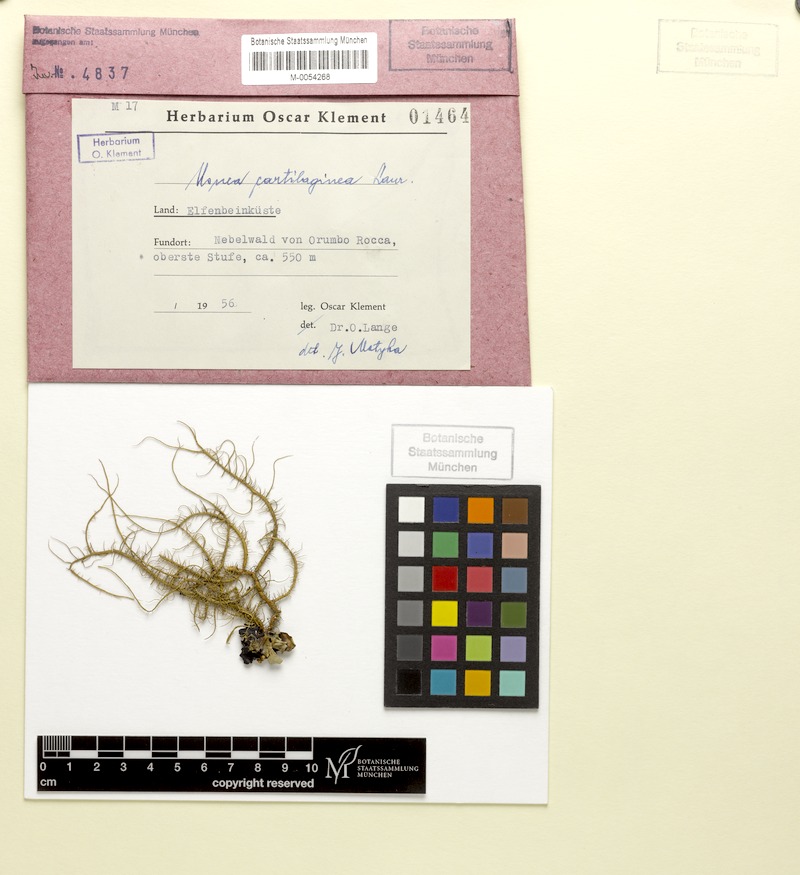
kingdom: Fungi
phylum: Ascomycota
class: Lecanoromycetes
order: Lecanorales
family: Parmeliaceae
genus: Usnea
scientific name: Usnea cartilaginea
